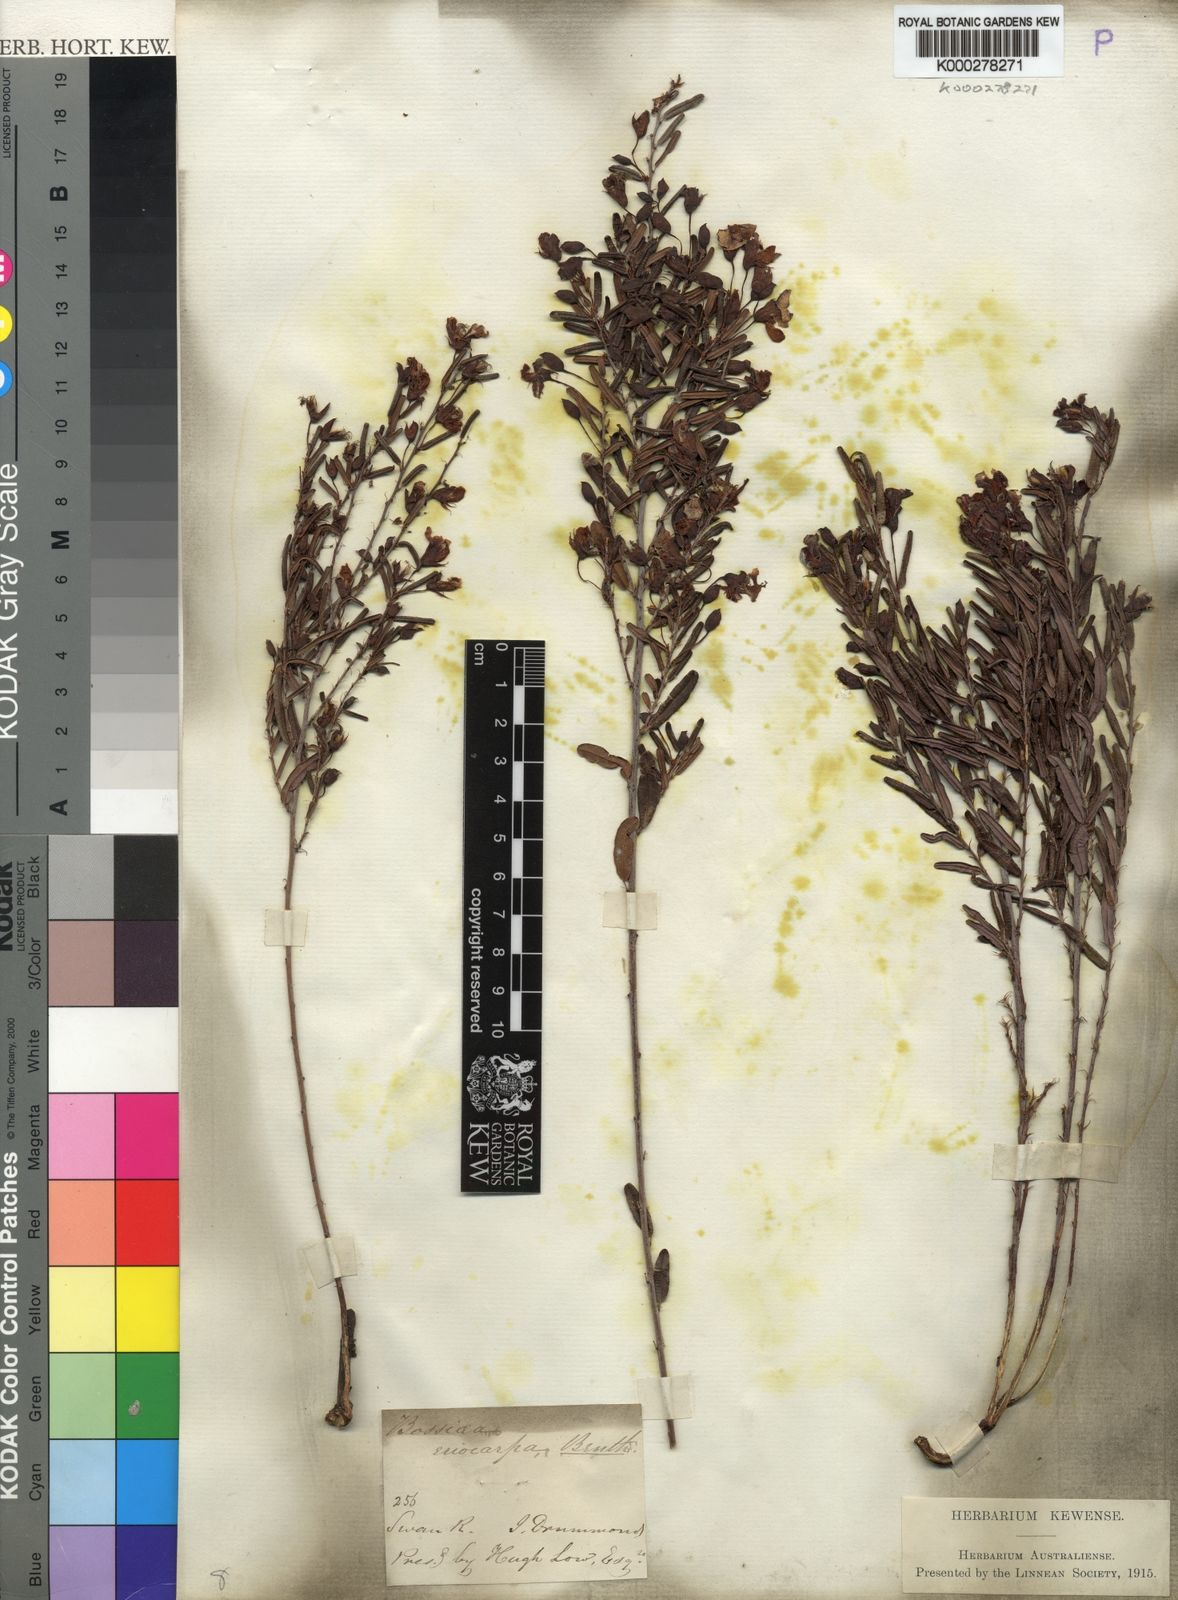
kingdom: Plantae
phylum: Tracheophyta
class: Magnoliopsida
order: Fabales
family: Fabaceae
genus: Bossiaea
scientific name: Bossiaea eriocarpa
